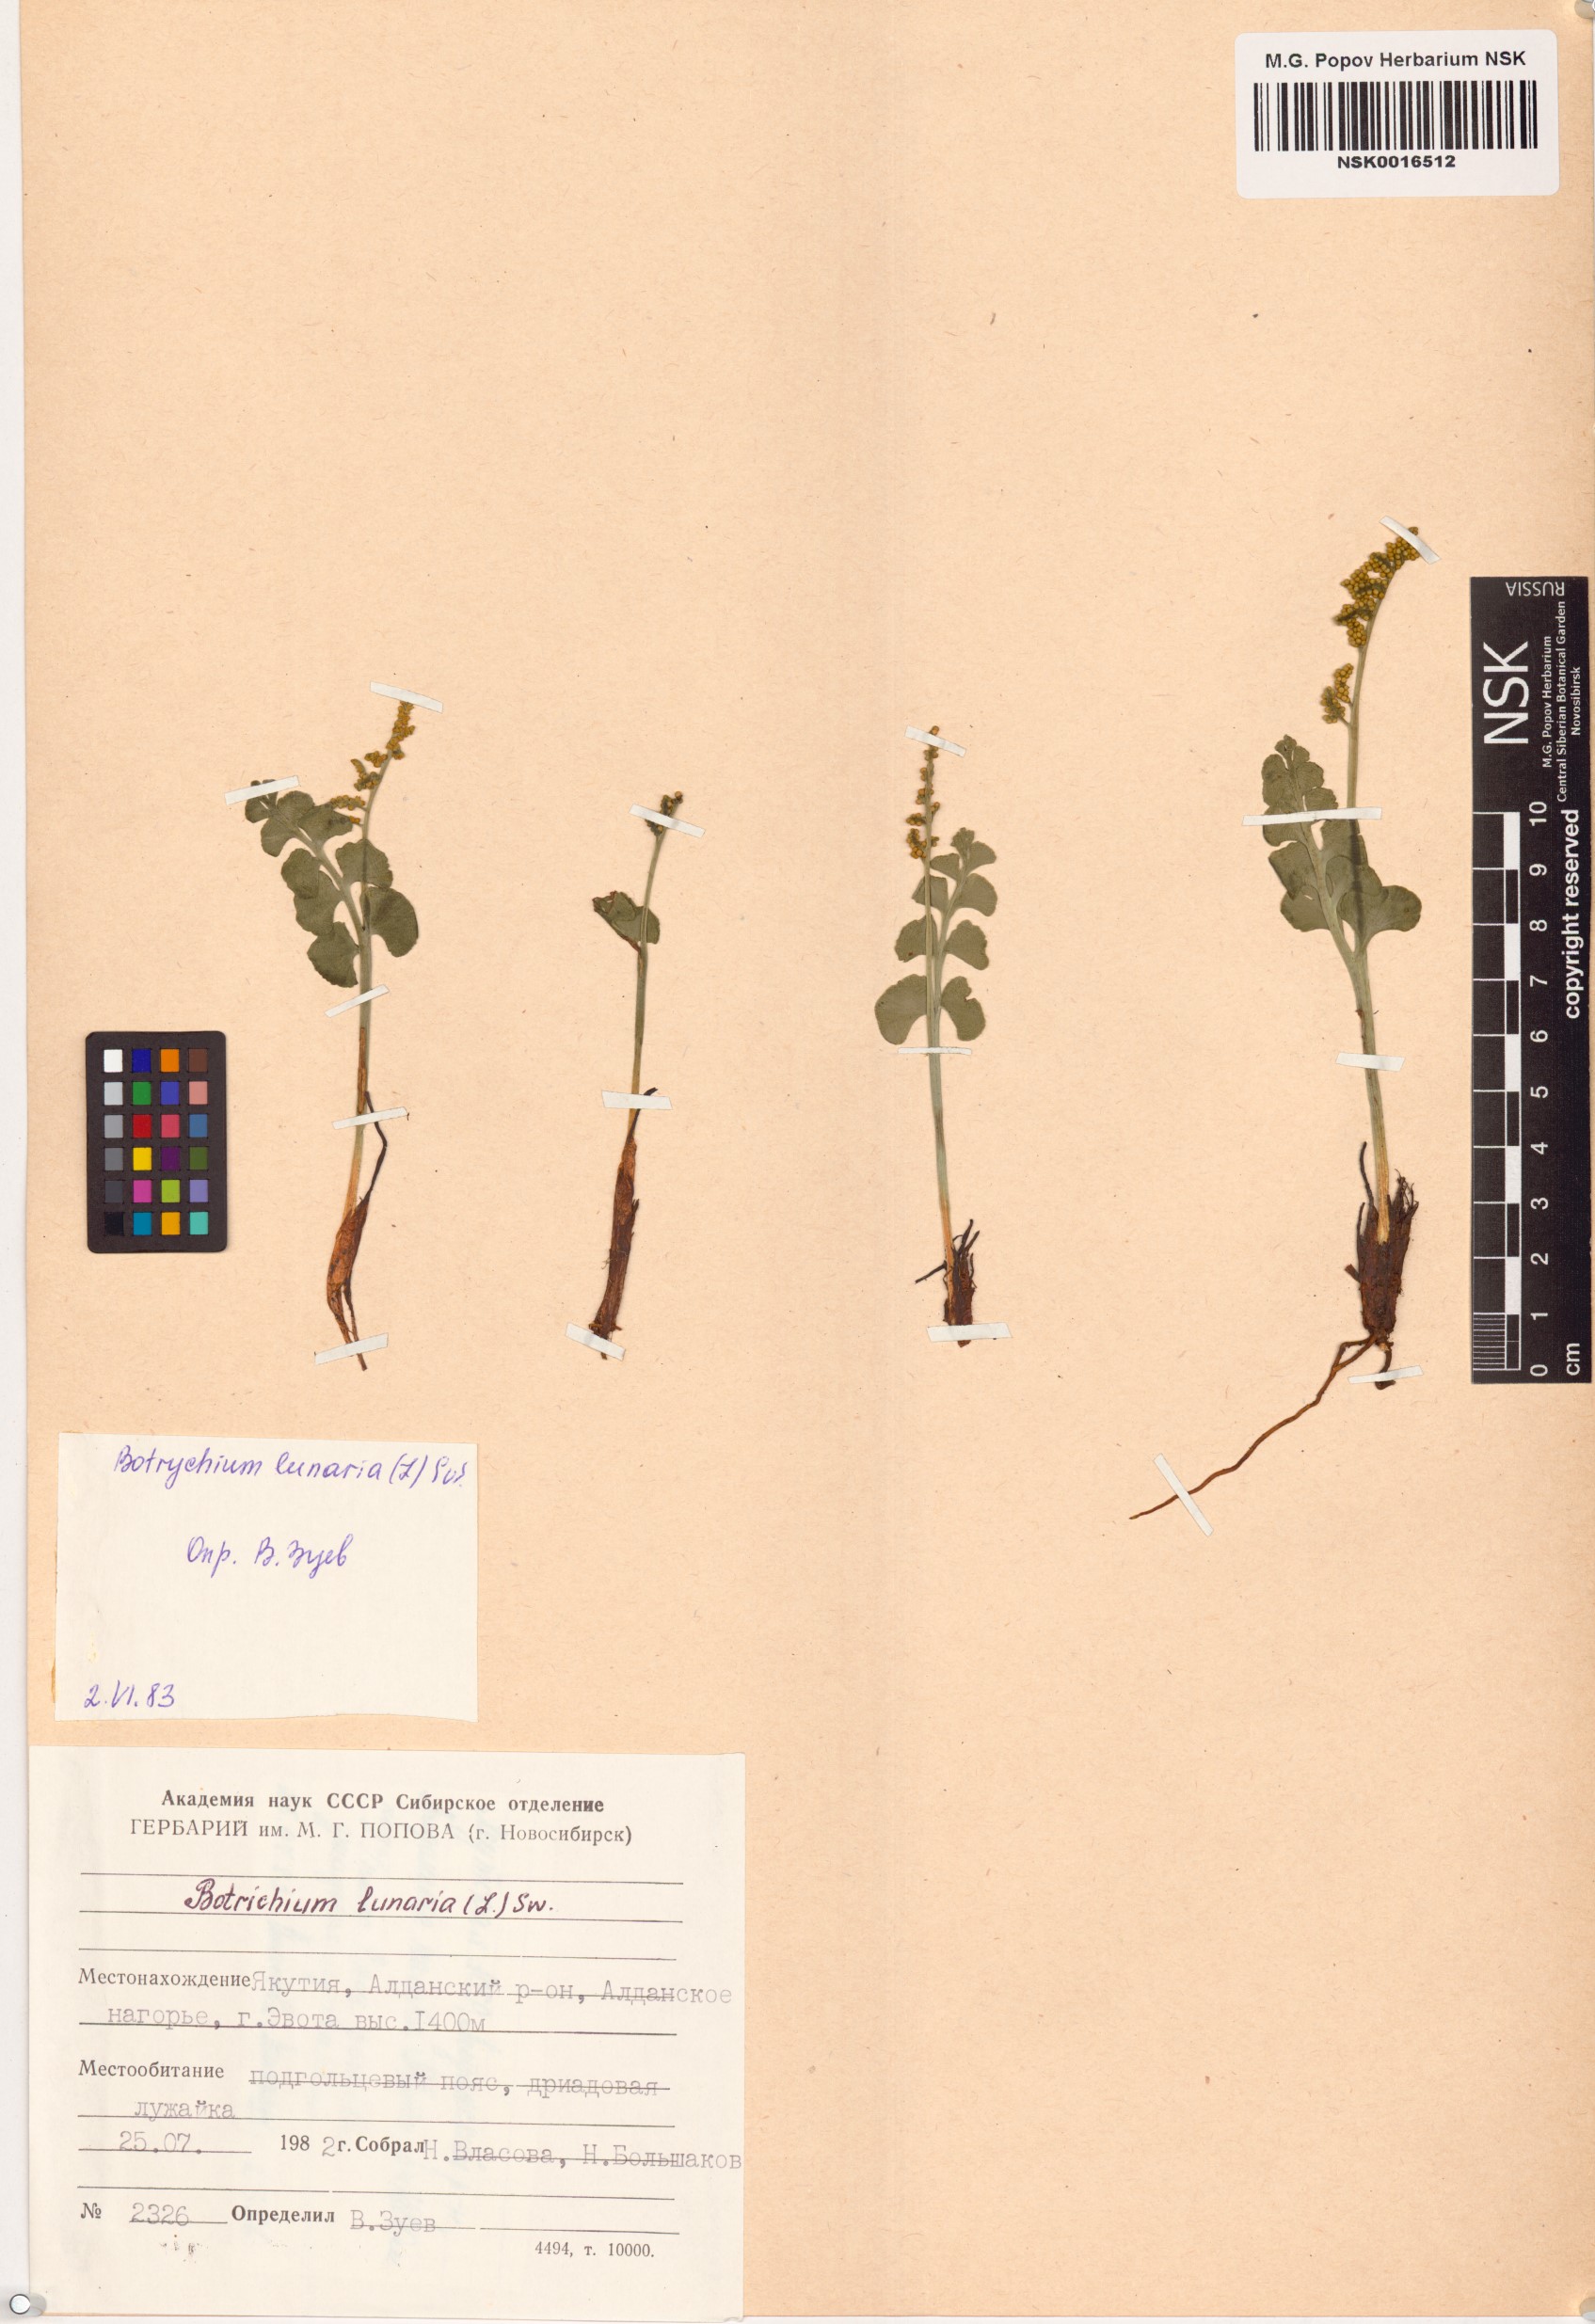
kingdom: Plantae
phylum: Tracheophyta
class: Polypodiopsida
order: Ophioglossales
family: Ophioglossaceae
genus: Botrychium
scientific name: Botrychium lunaria
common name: Moonwort
